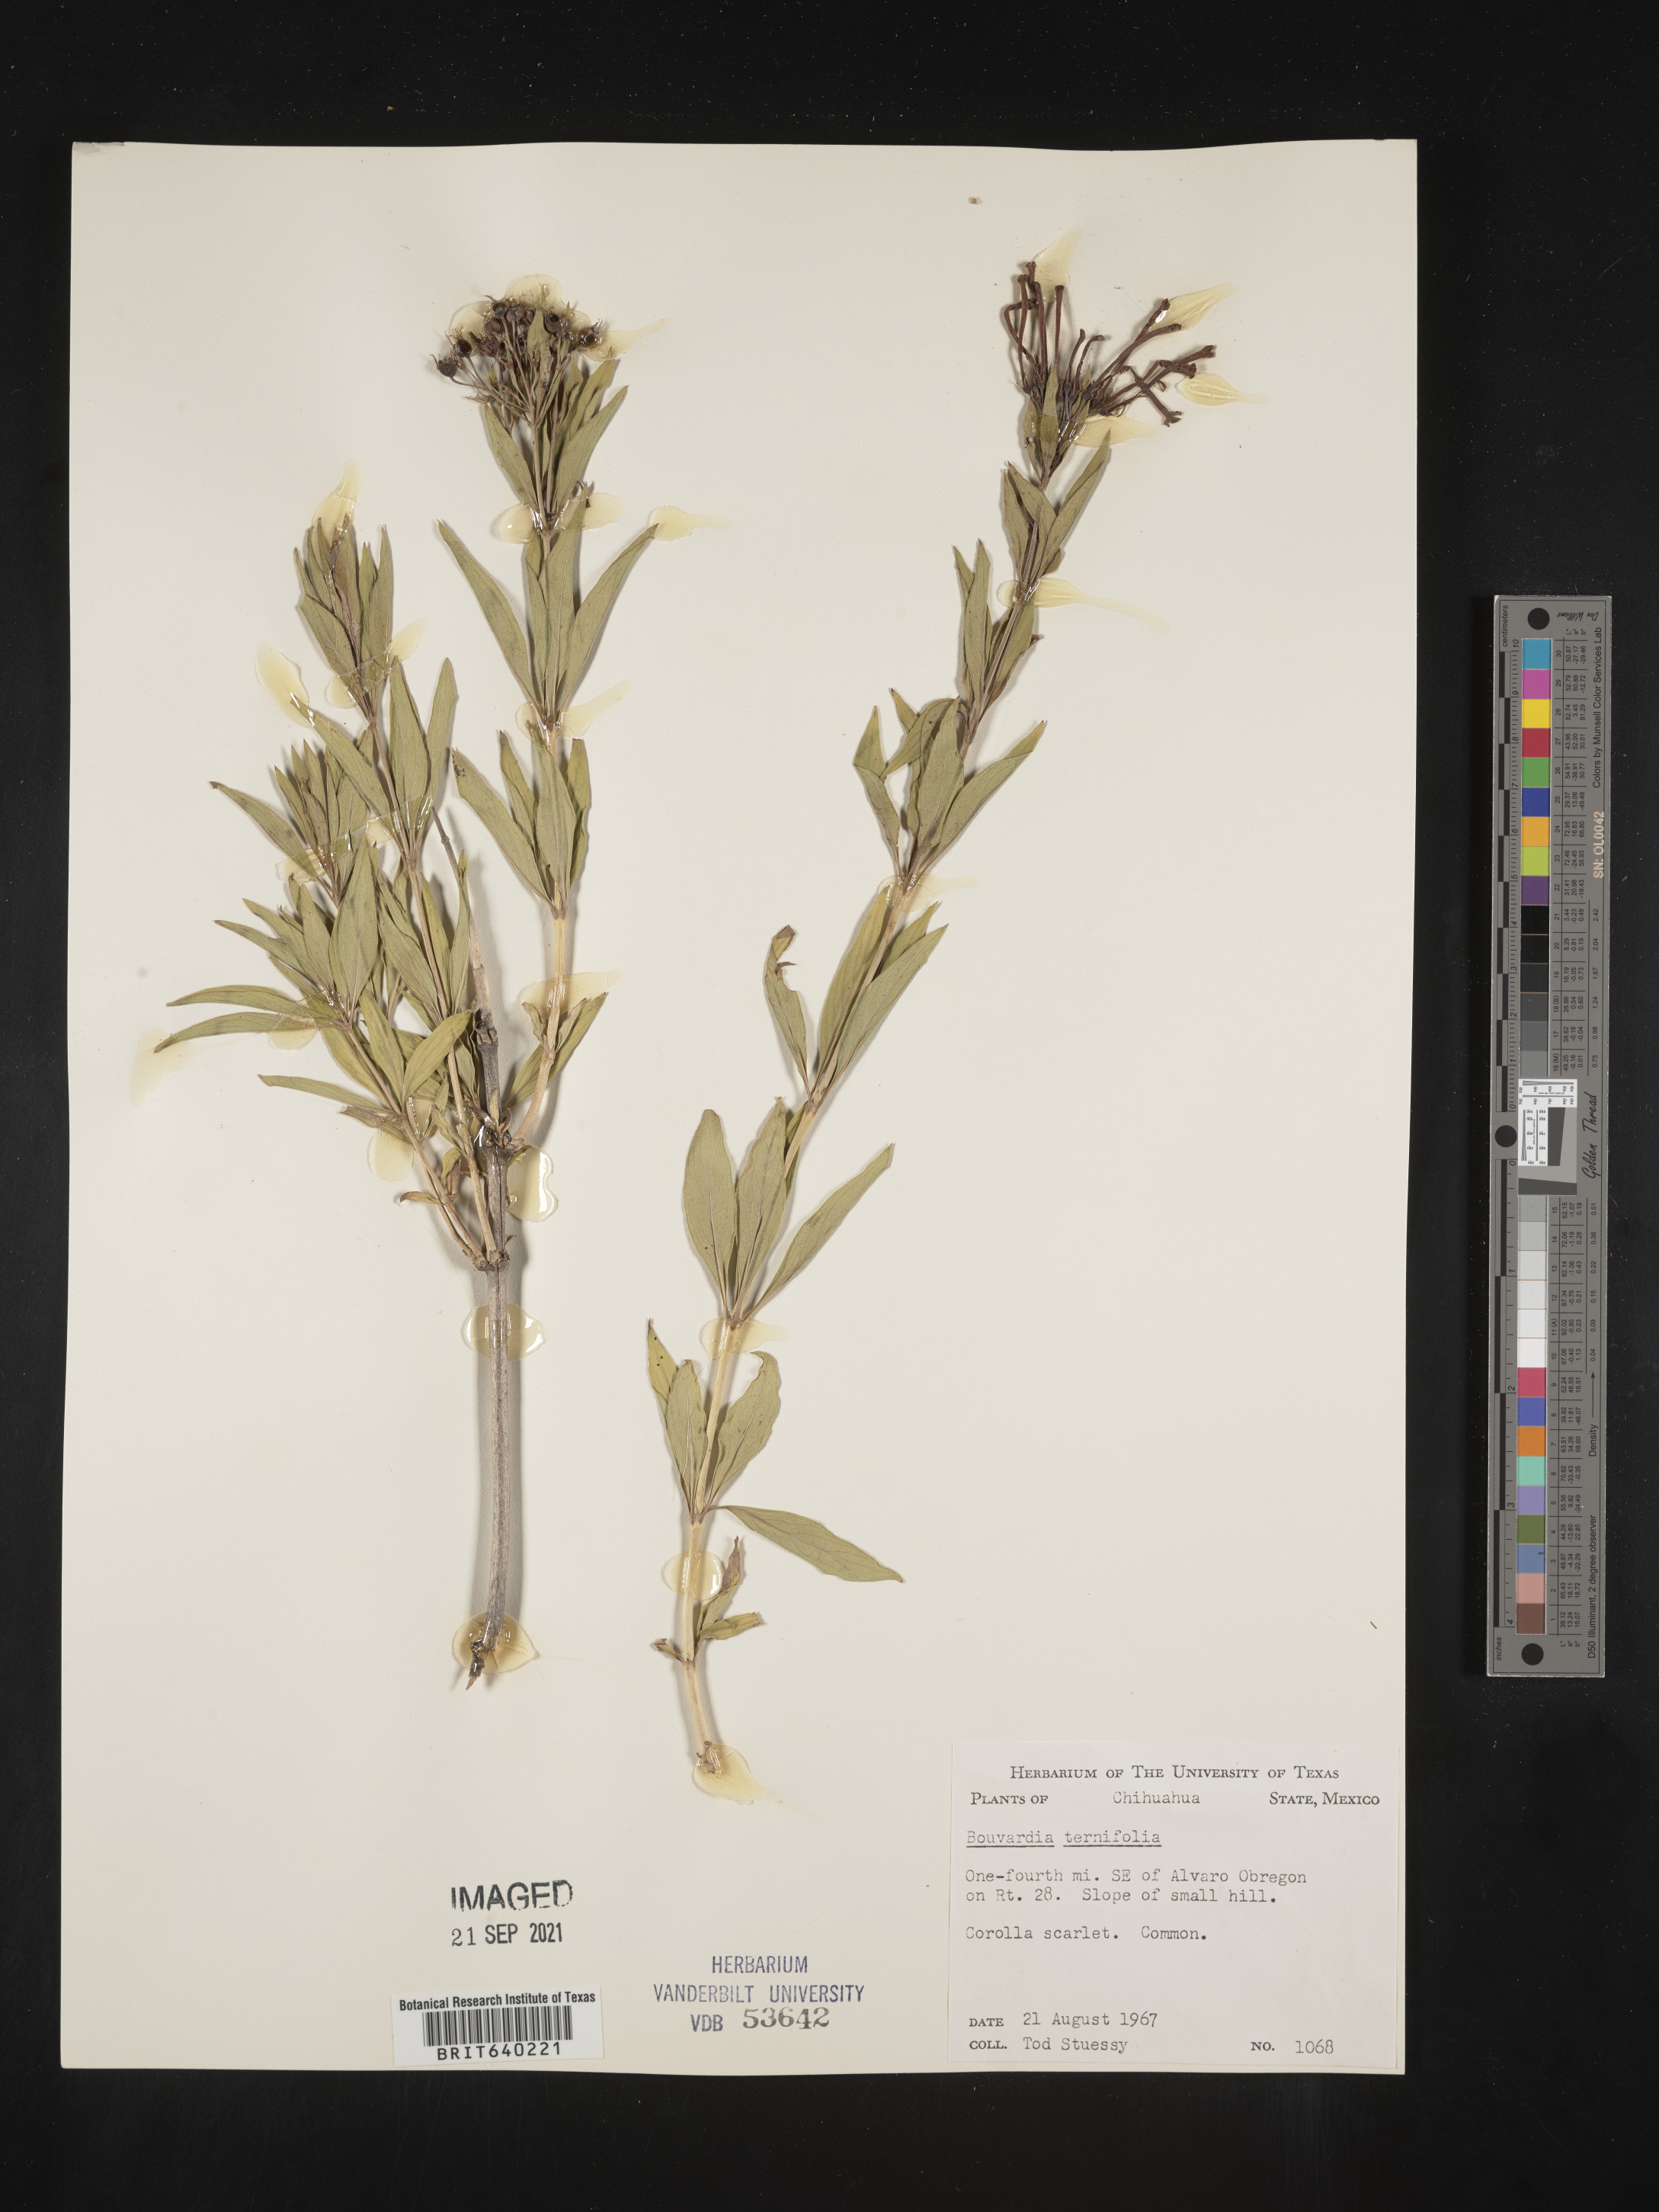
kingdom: Plantae
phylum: Tracheophyta
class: Magnoliopsida
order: Gentianales
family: Rubiaceae
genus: Bouvardia
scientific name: Bouvardia
